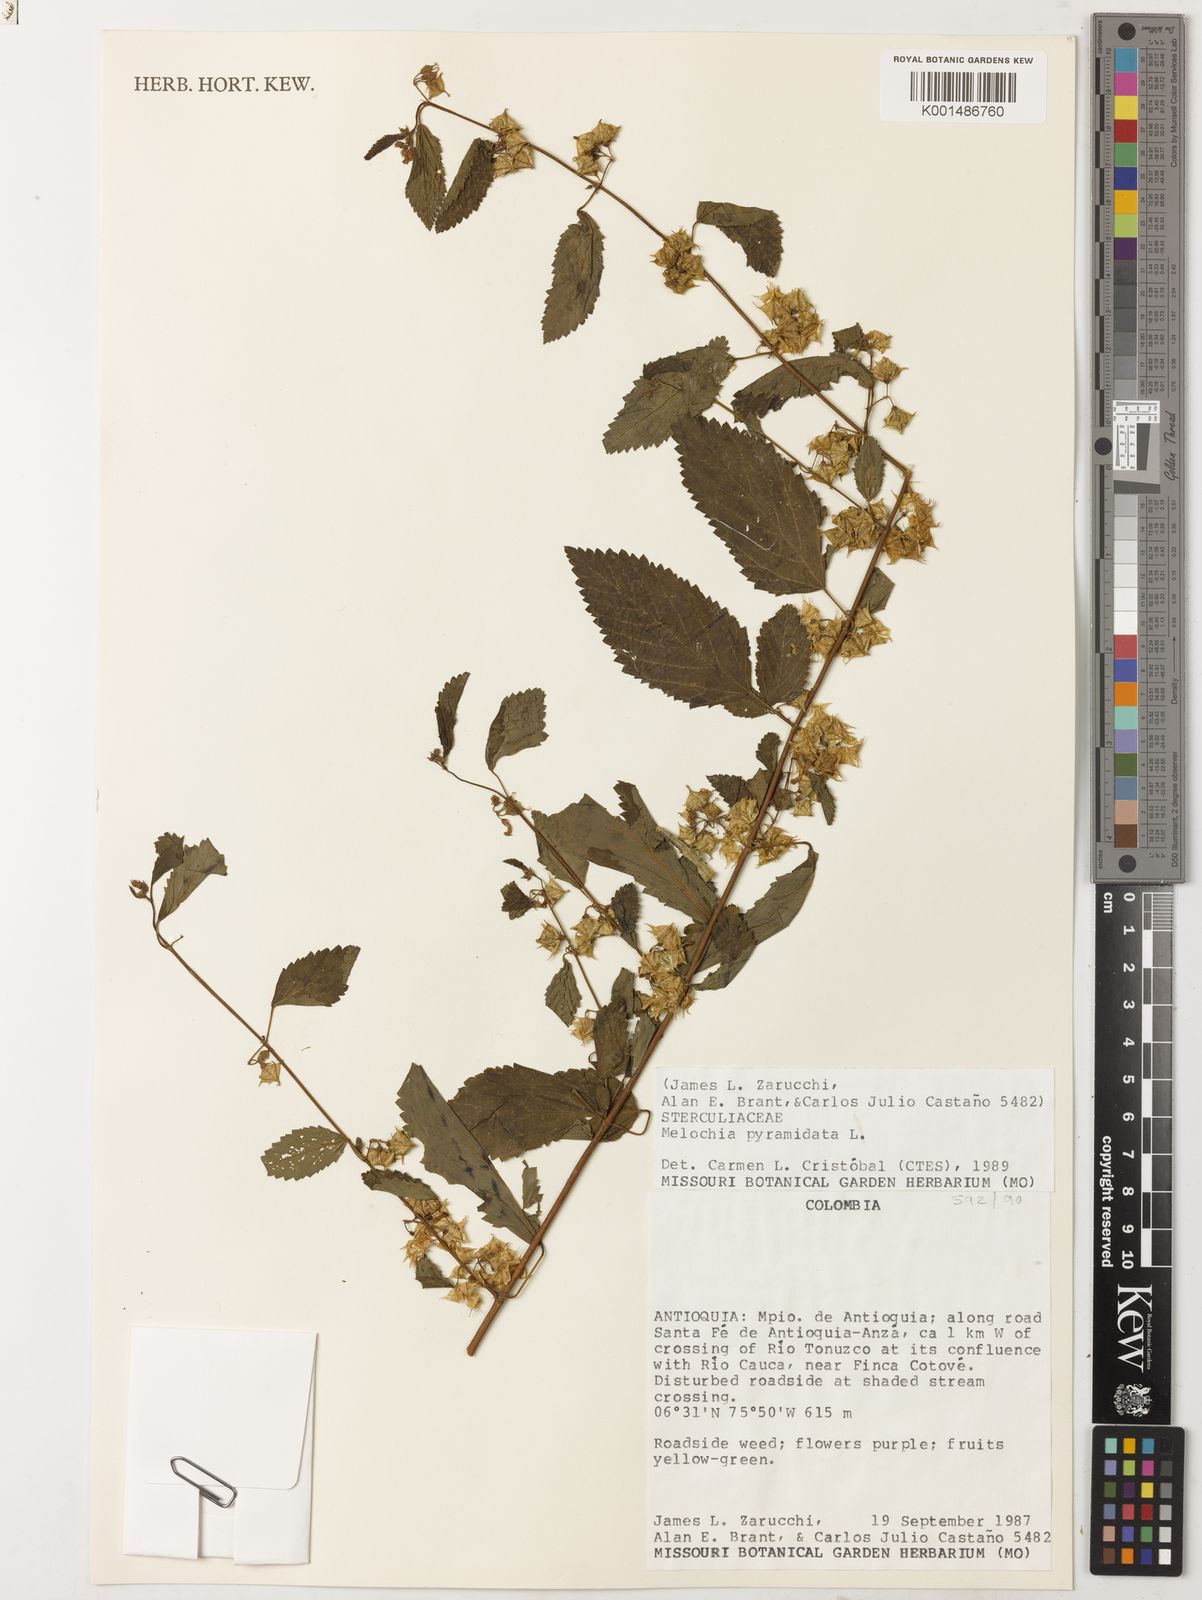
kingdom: Plantae
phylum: Tracheophyta
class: Magnoliopsida
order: Malvales
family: Malvaceae
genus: Melochia
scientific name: Melochia pyramidata
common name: Pyramidflower
